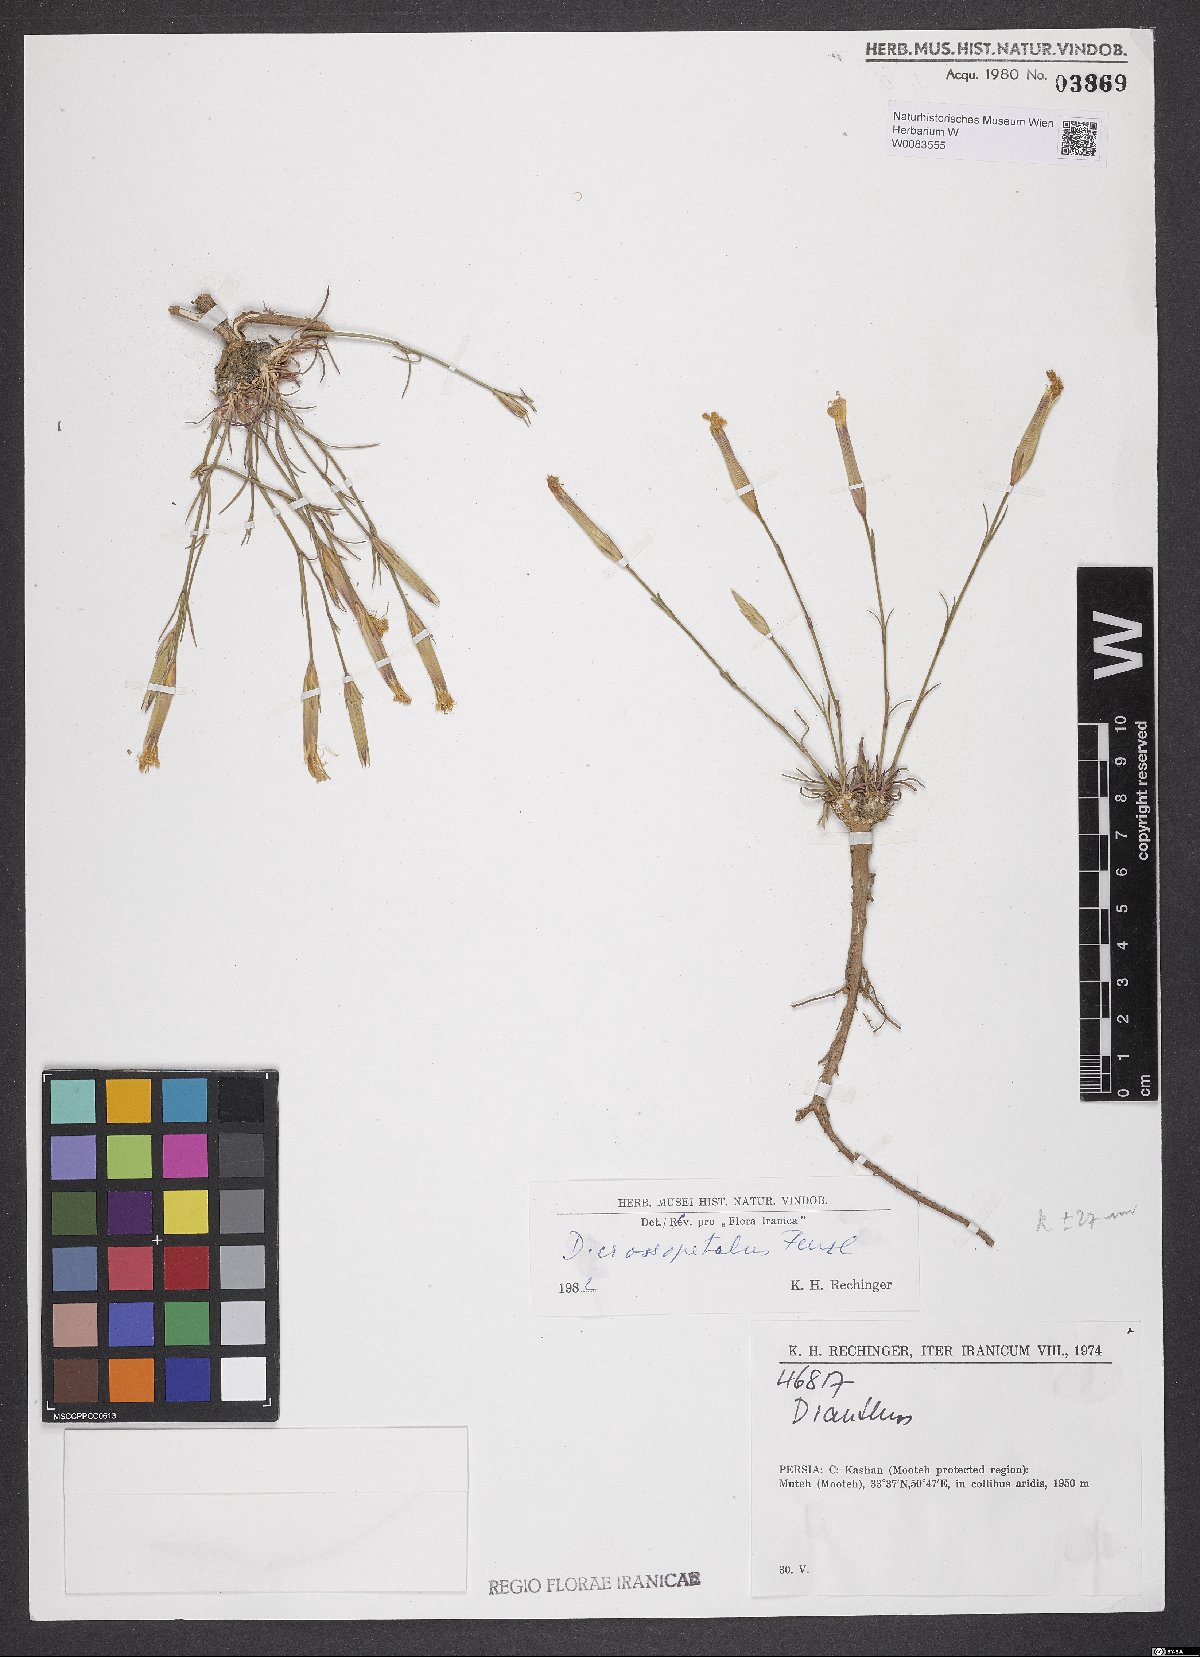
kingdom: Plantae
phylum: Tracheophyta
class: Magnoliopsida
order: Caryophyllales
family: Caryophyllaceae
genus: Dianthus
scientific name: Dianthus crossopetalus
